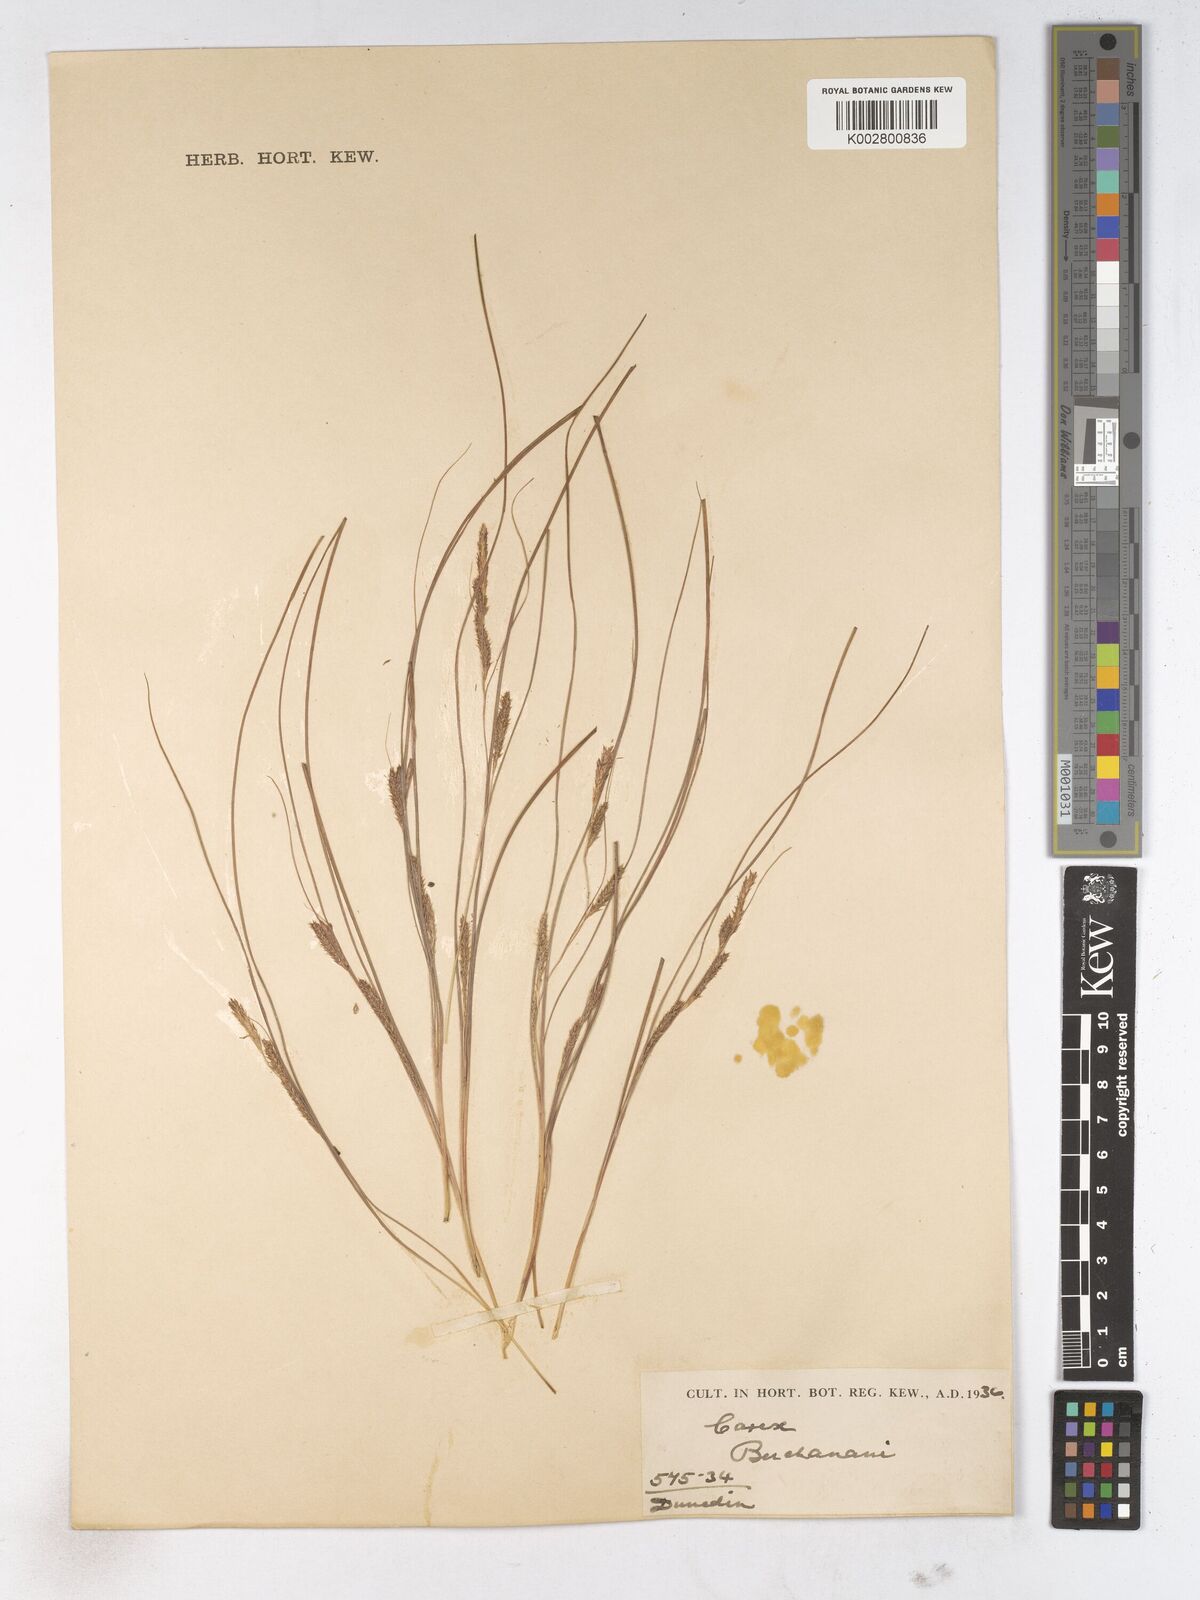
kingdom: Plantae
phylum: Tracheophyta
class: Liliopsida
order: Poales
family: Cyperaceae
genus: Carex
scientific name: Carex breviculmis
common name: Asian shortstem sedge
